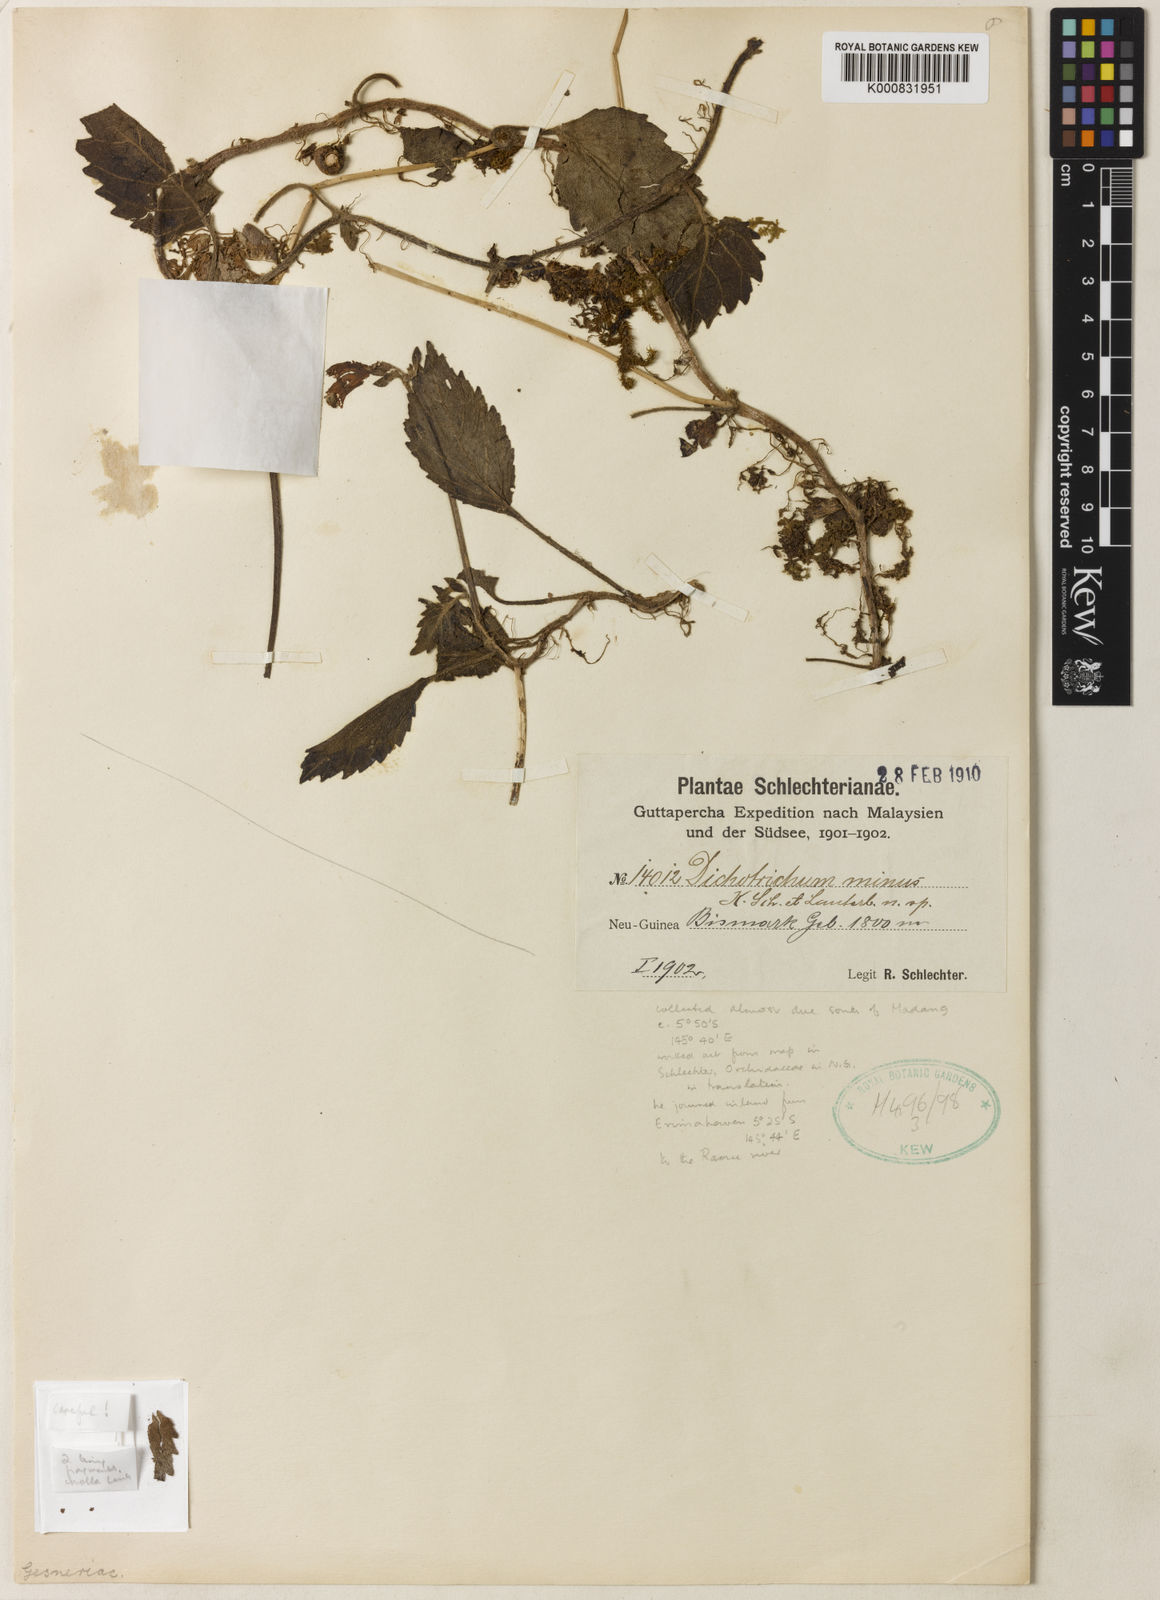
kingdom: Plantae
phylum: Tracheophyta
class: Magnoliopsida
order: Lamiales
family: Gesneriaceae
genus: Agalmyla
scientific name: Agalmyla minor
